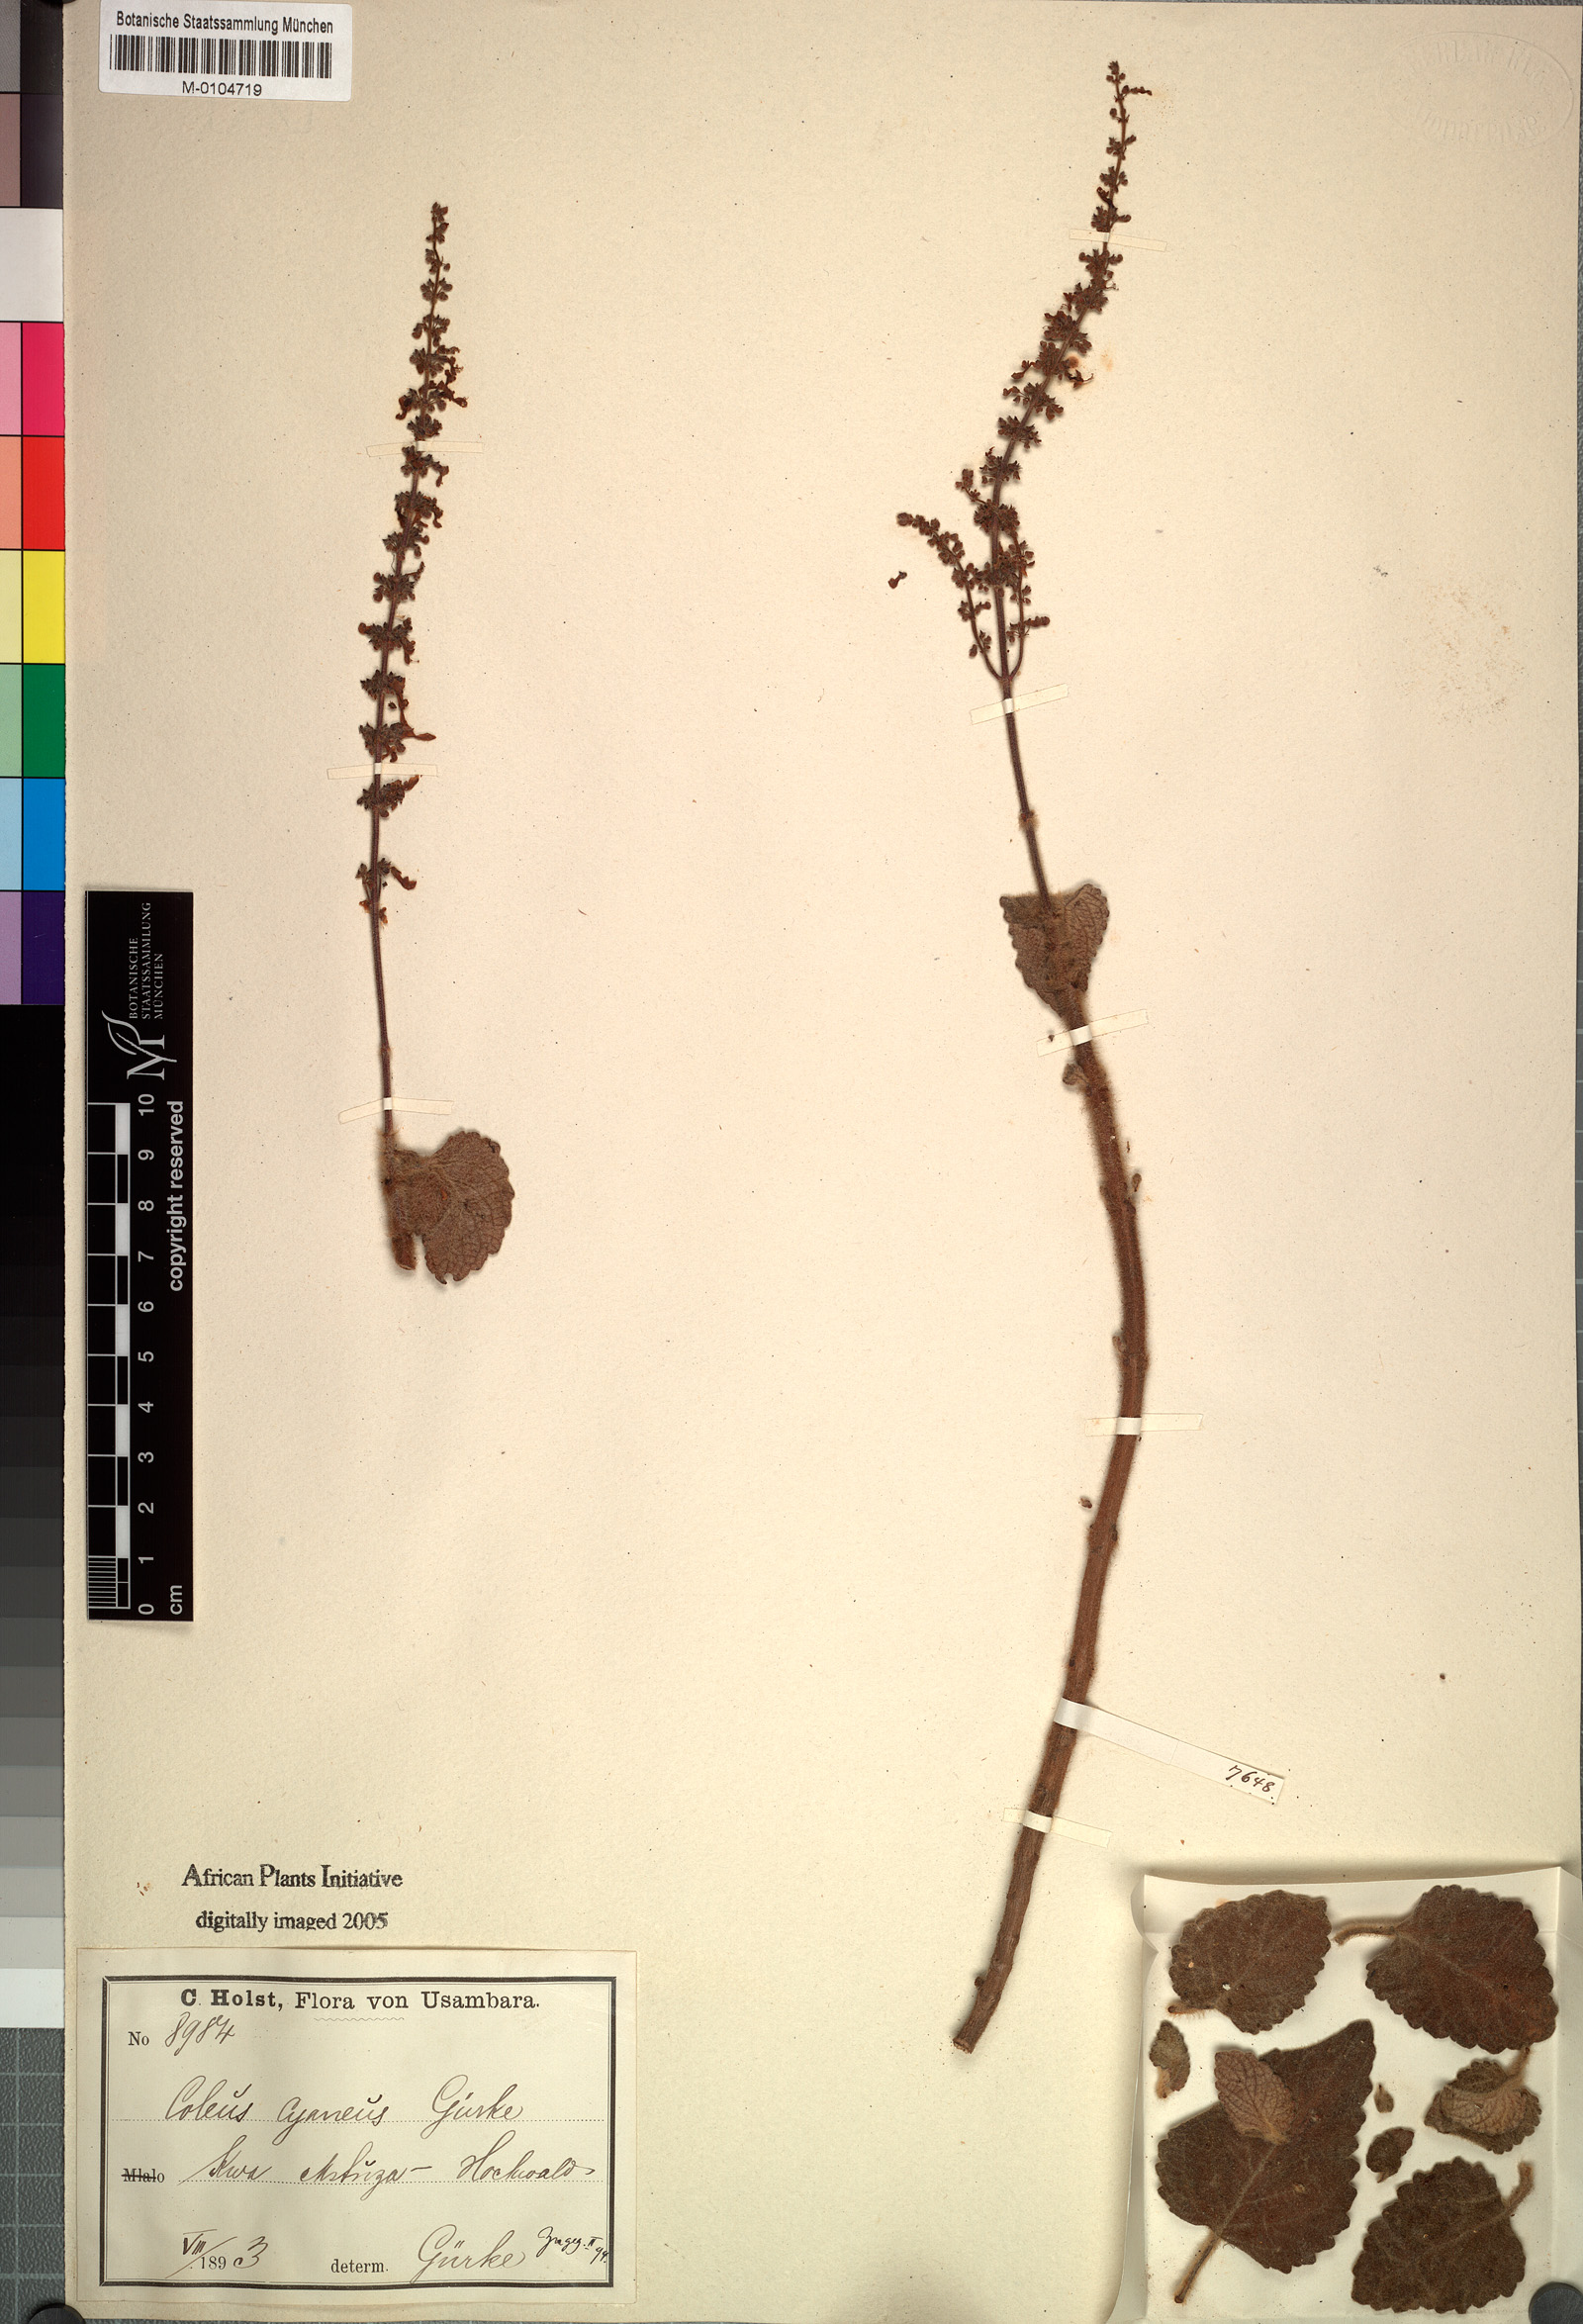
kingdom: Plantae
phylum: Tracheophyta
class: Magnoliopsida
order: Lamiales
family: Lamiaceae
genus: Coleus
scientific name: Coleus hadiensis
